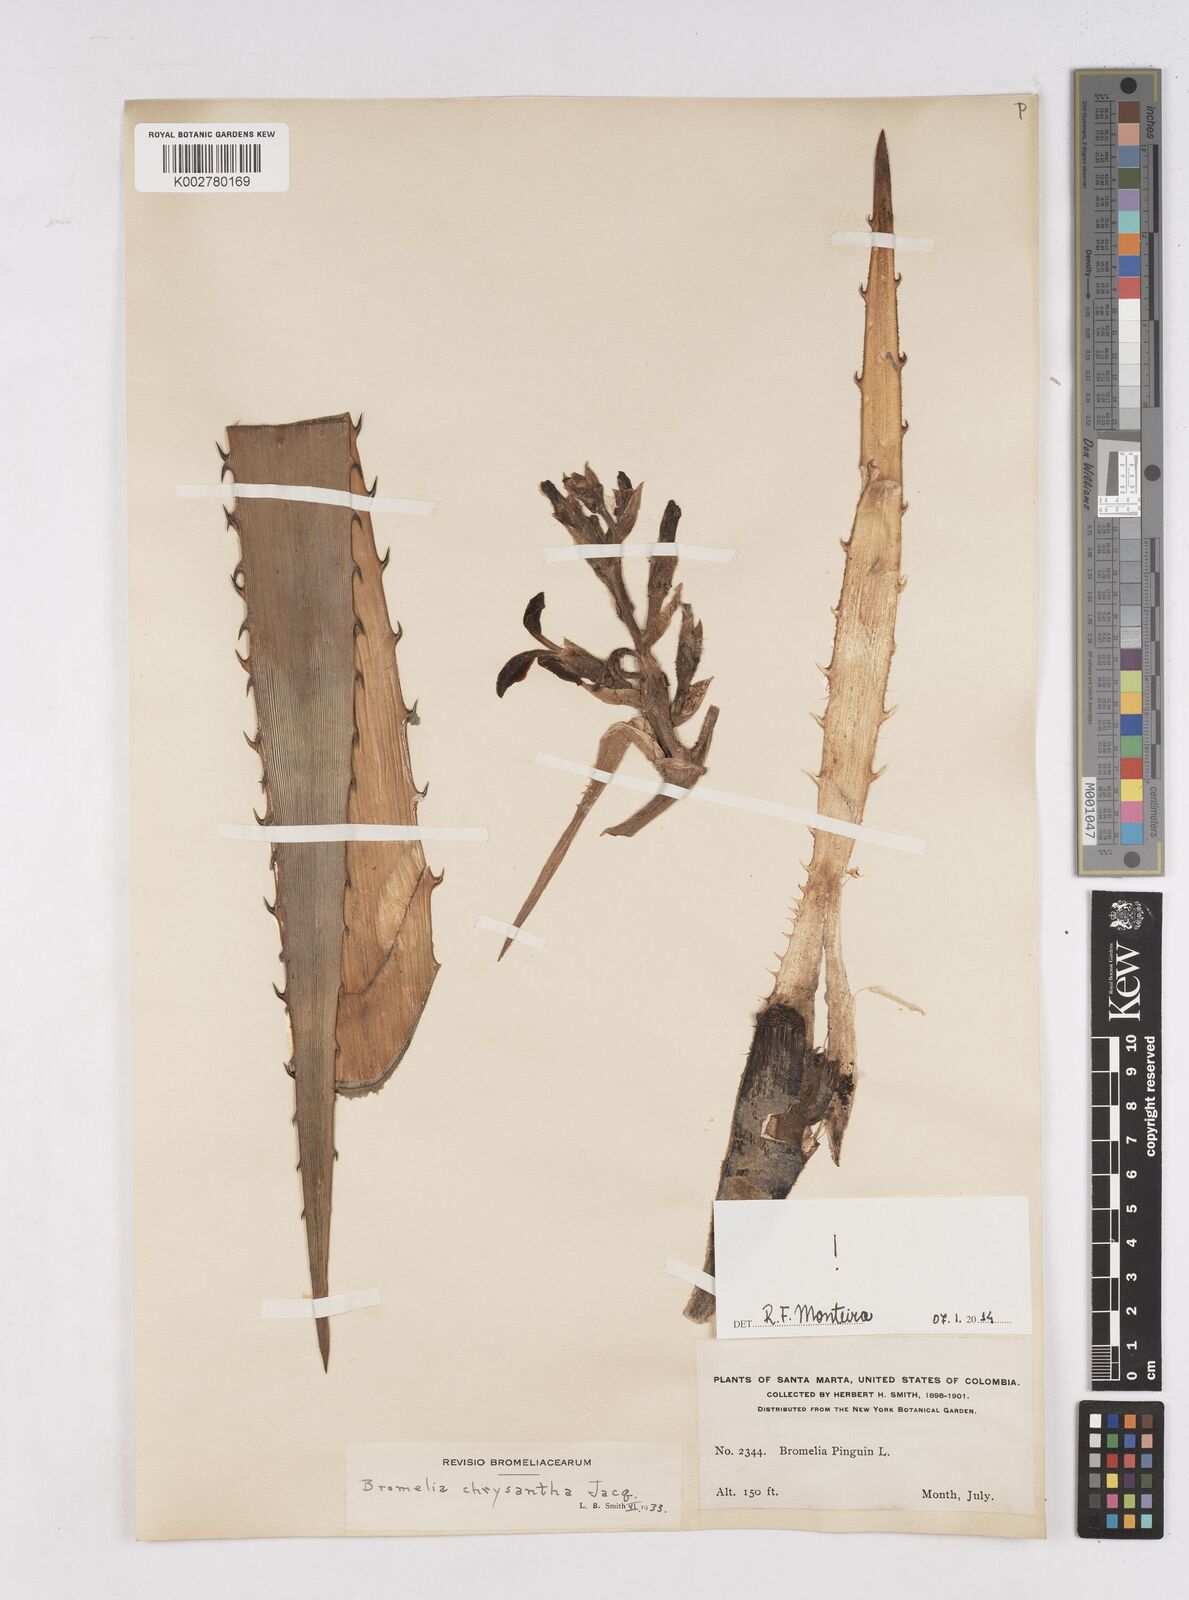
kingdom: Plantae
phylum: Tracheophyta
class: Liliopsida
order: Poales
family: Bromeliaceae
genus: Bromelia
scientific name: Bromelia chrysantha
